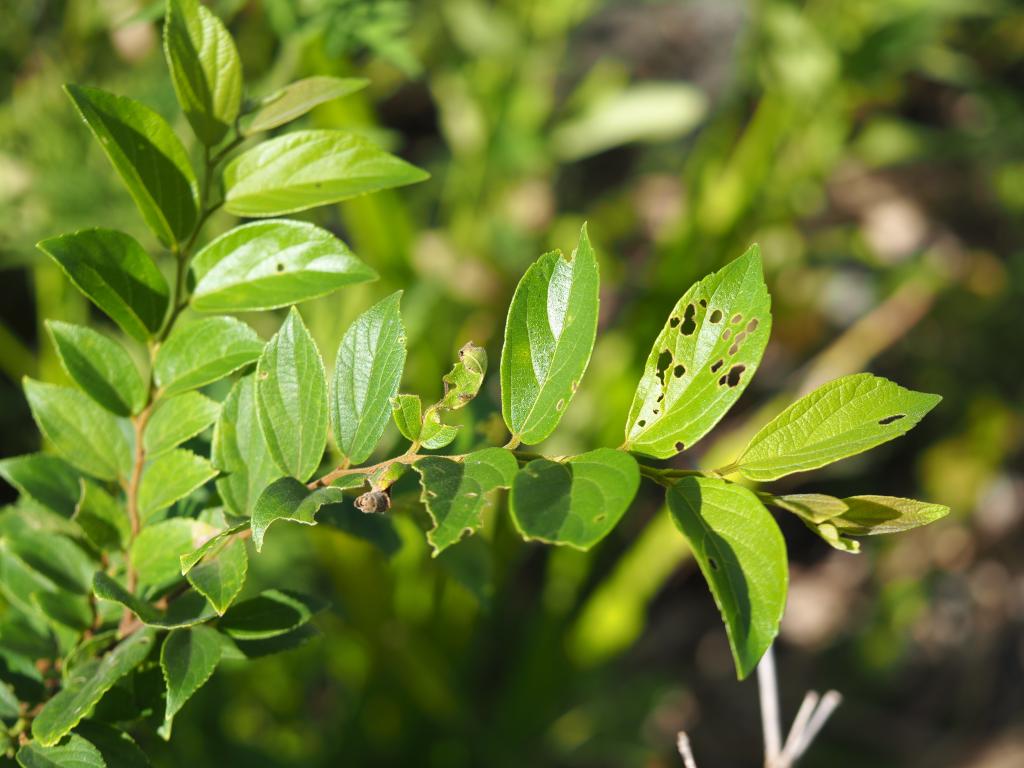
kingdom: Plantae
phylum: Tracheophyta
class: Magnoliopsida
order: Rosales
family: Cannabaceae
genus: Celtis
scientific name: Celtis sinensis
